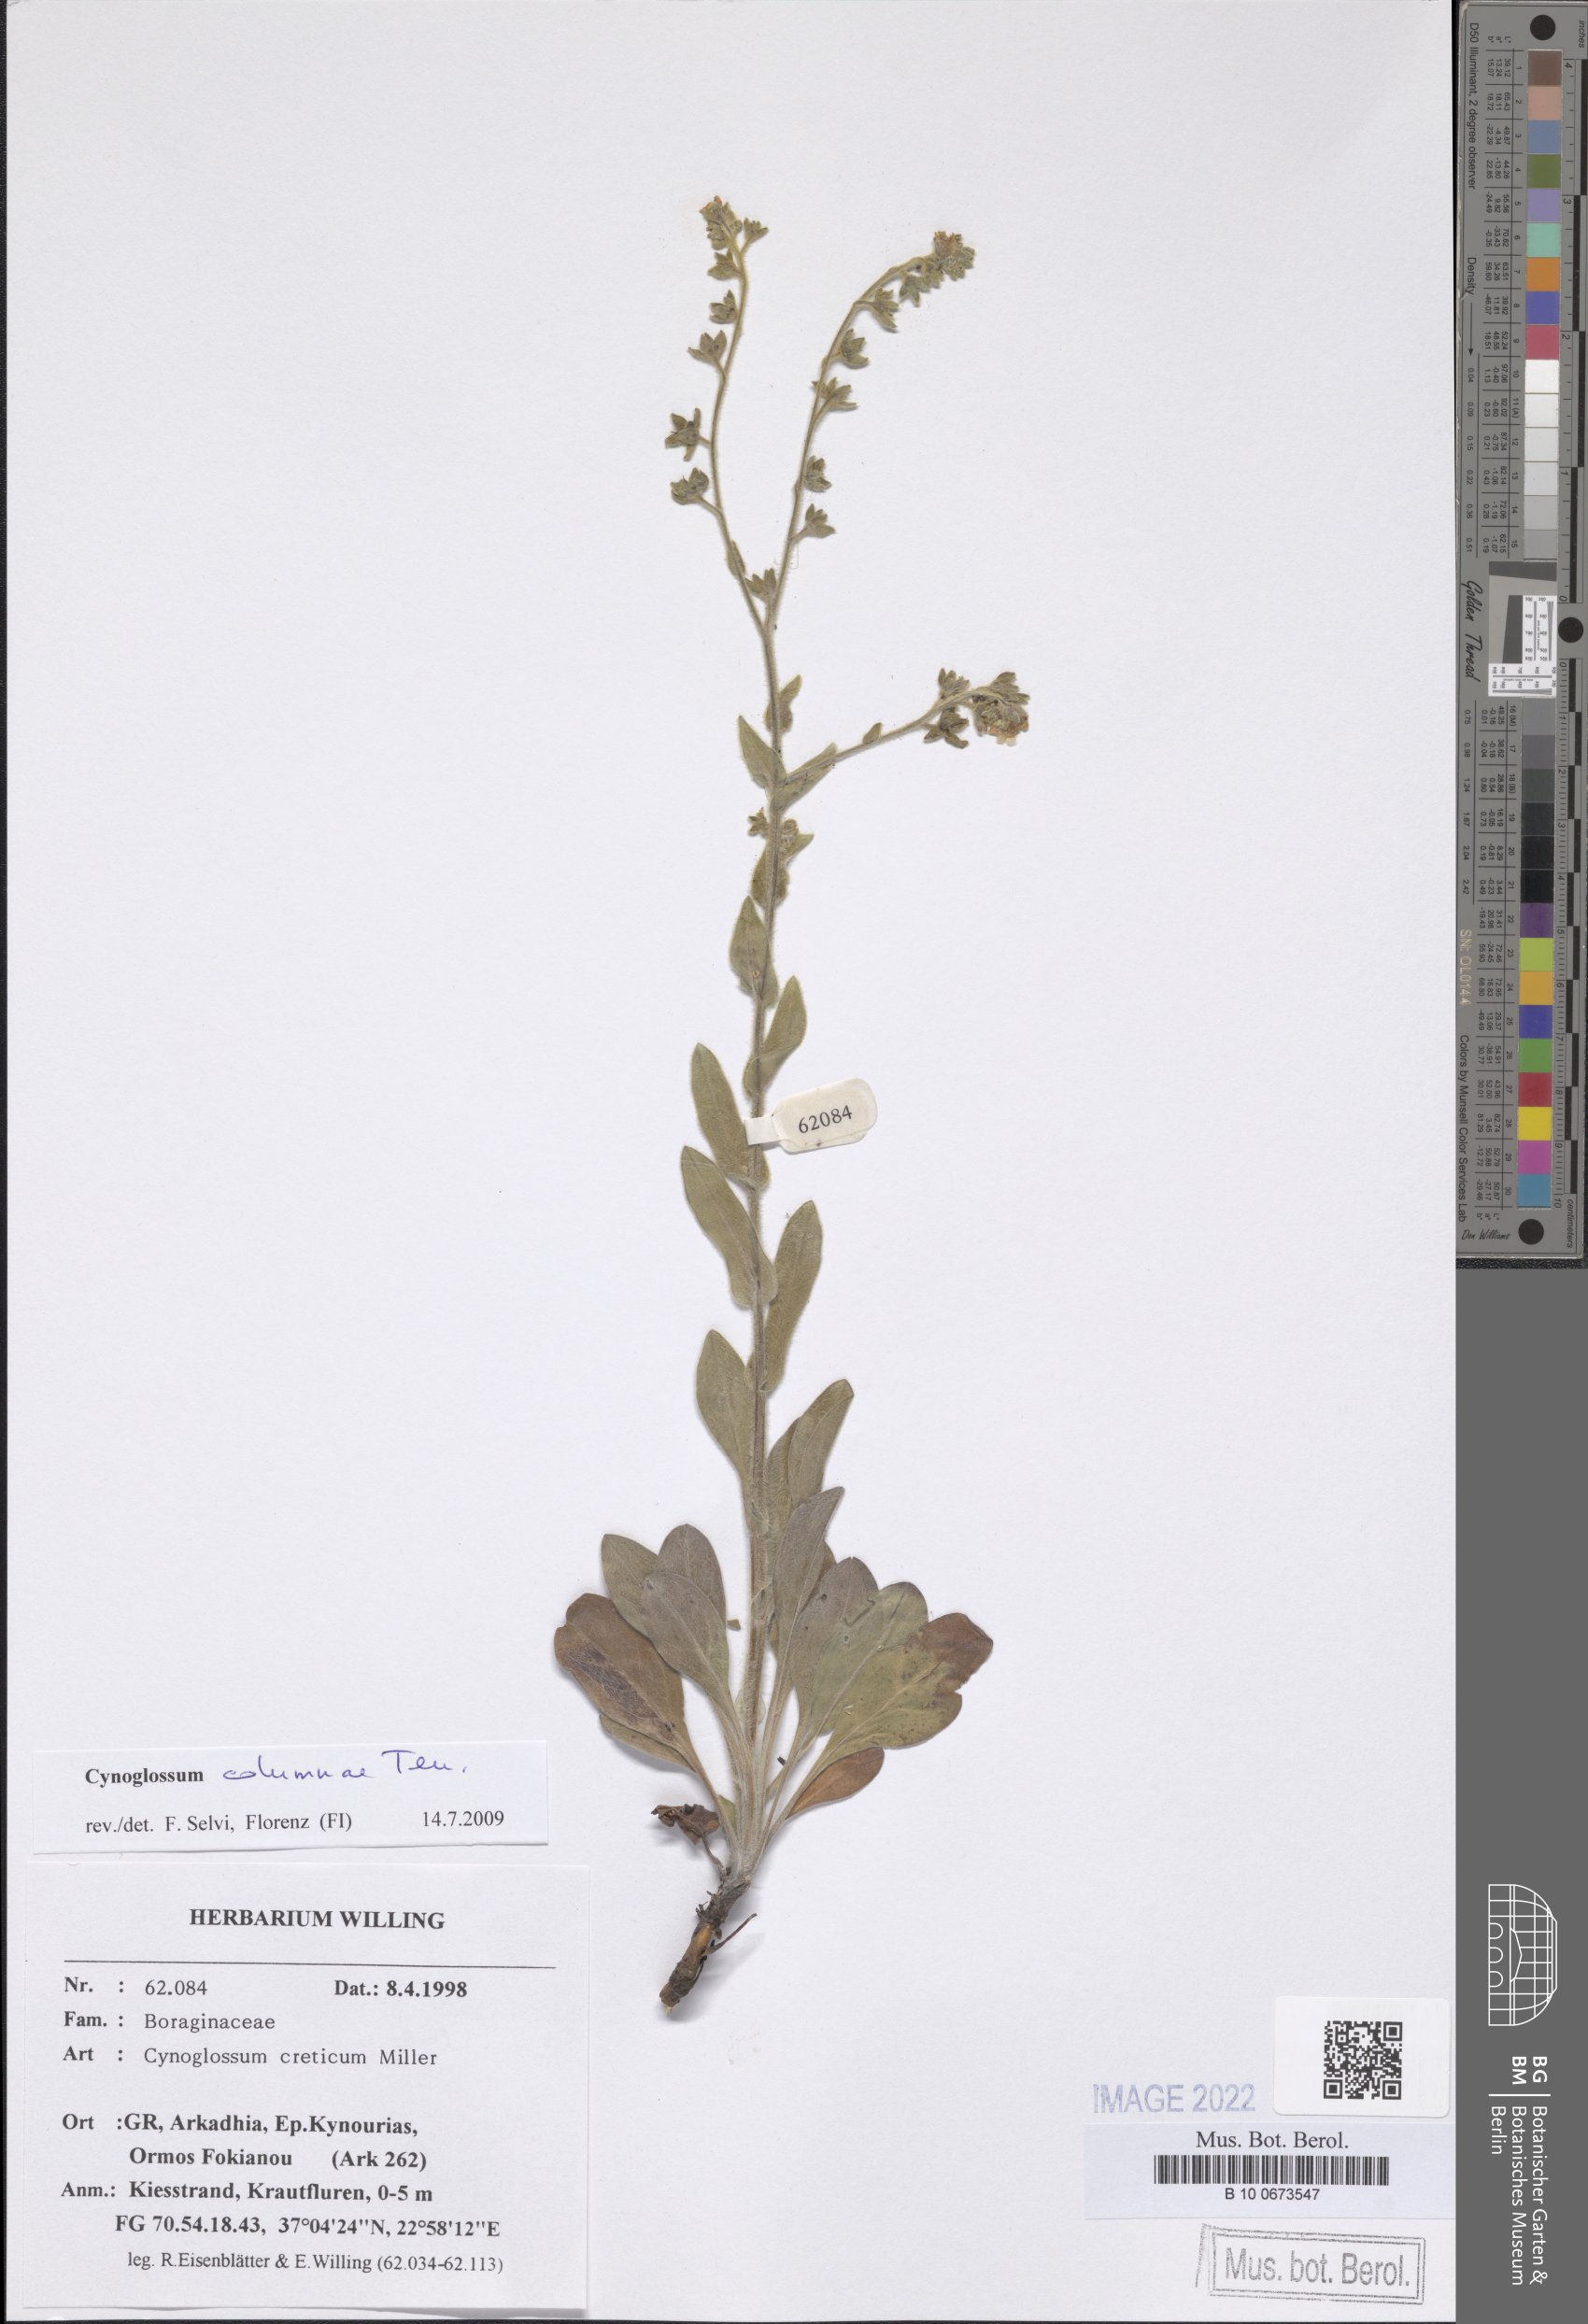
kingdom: Plantae
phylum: Tracheophyta
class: Magnoliopsida
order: Boraginales
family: Boraginaceae
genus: Rindera
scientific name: Rindera columnae
